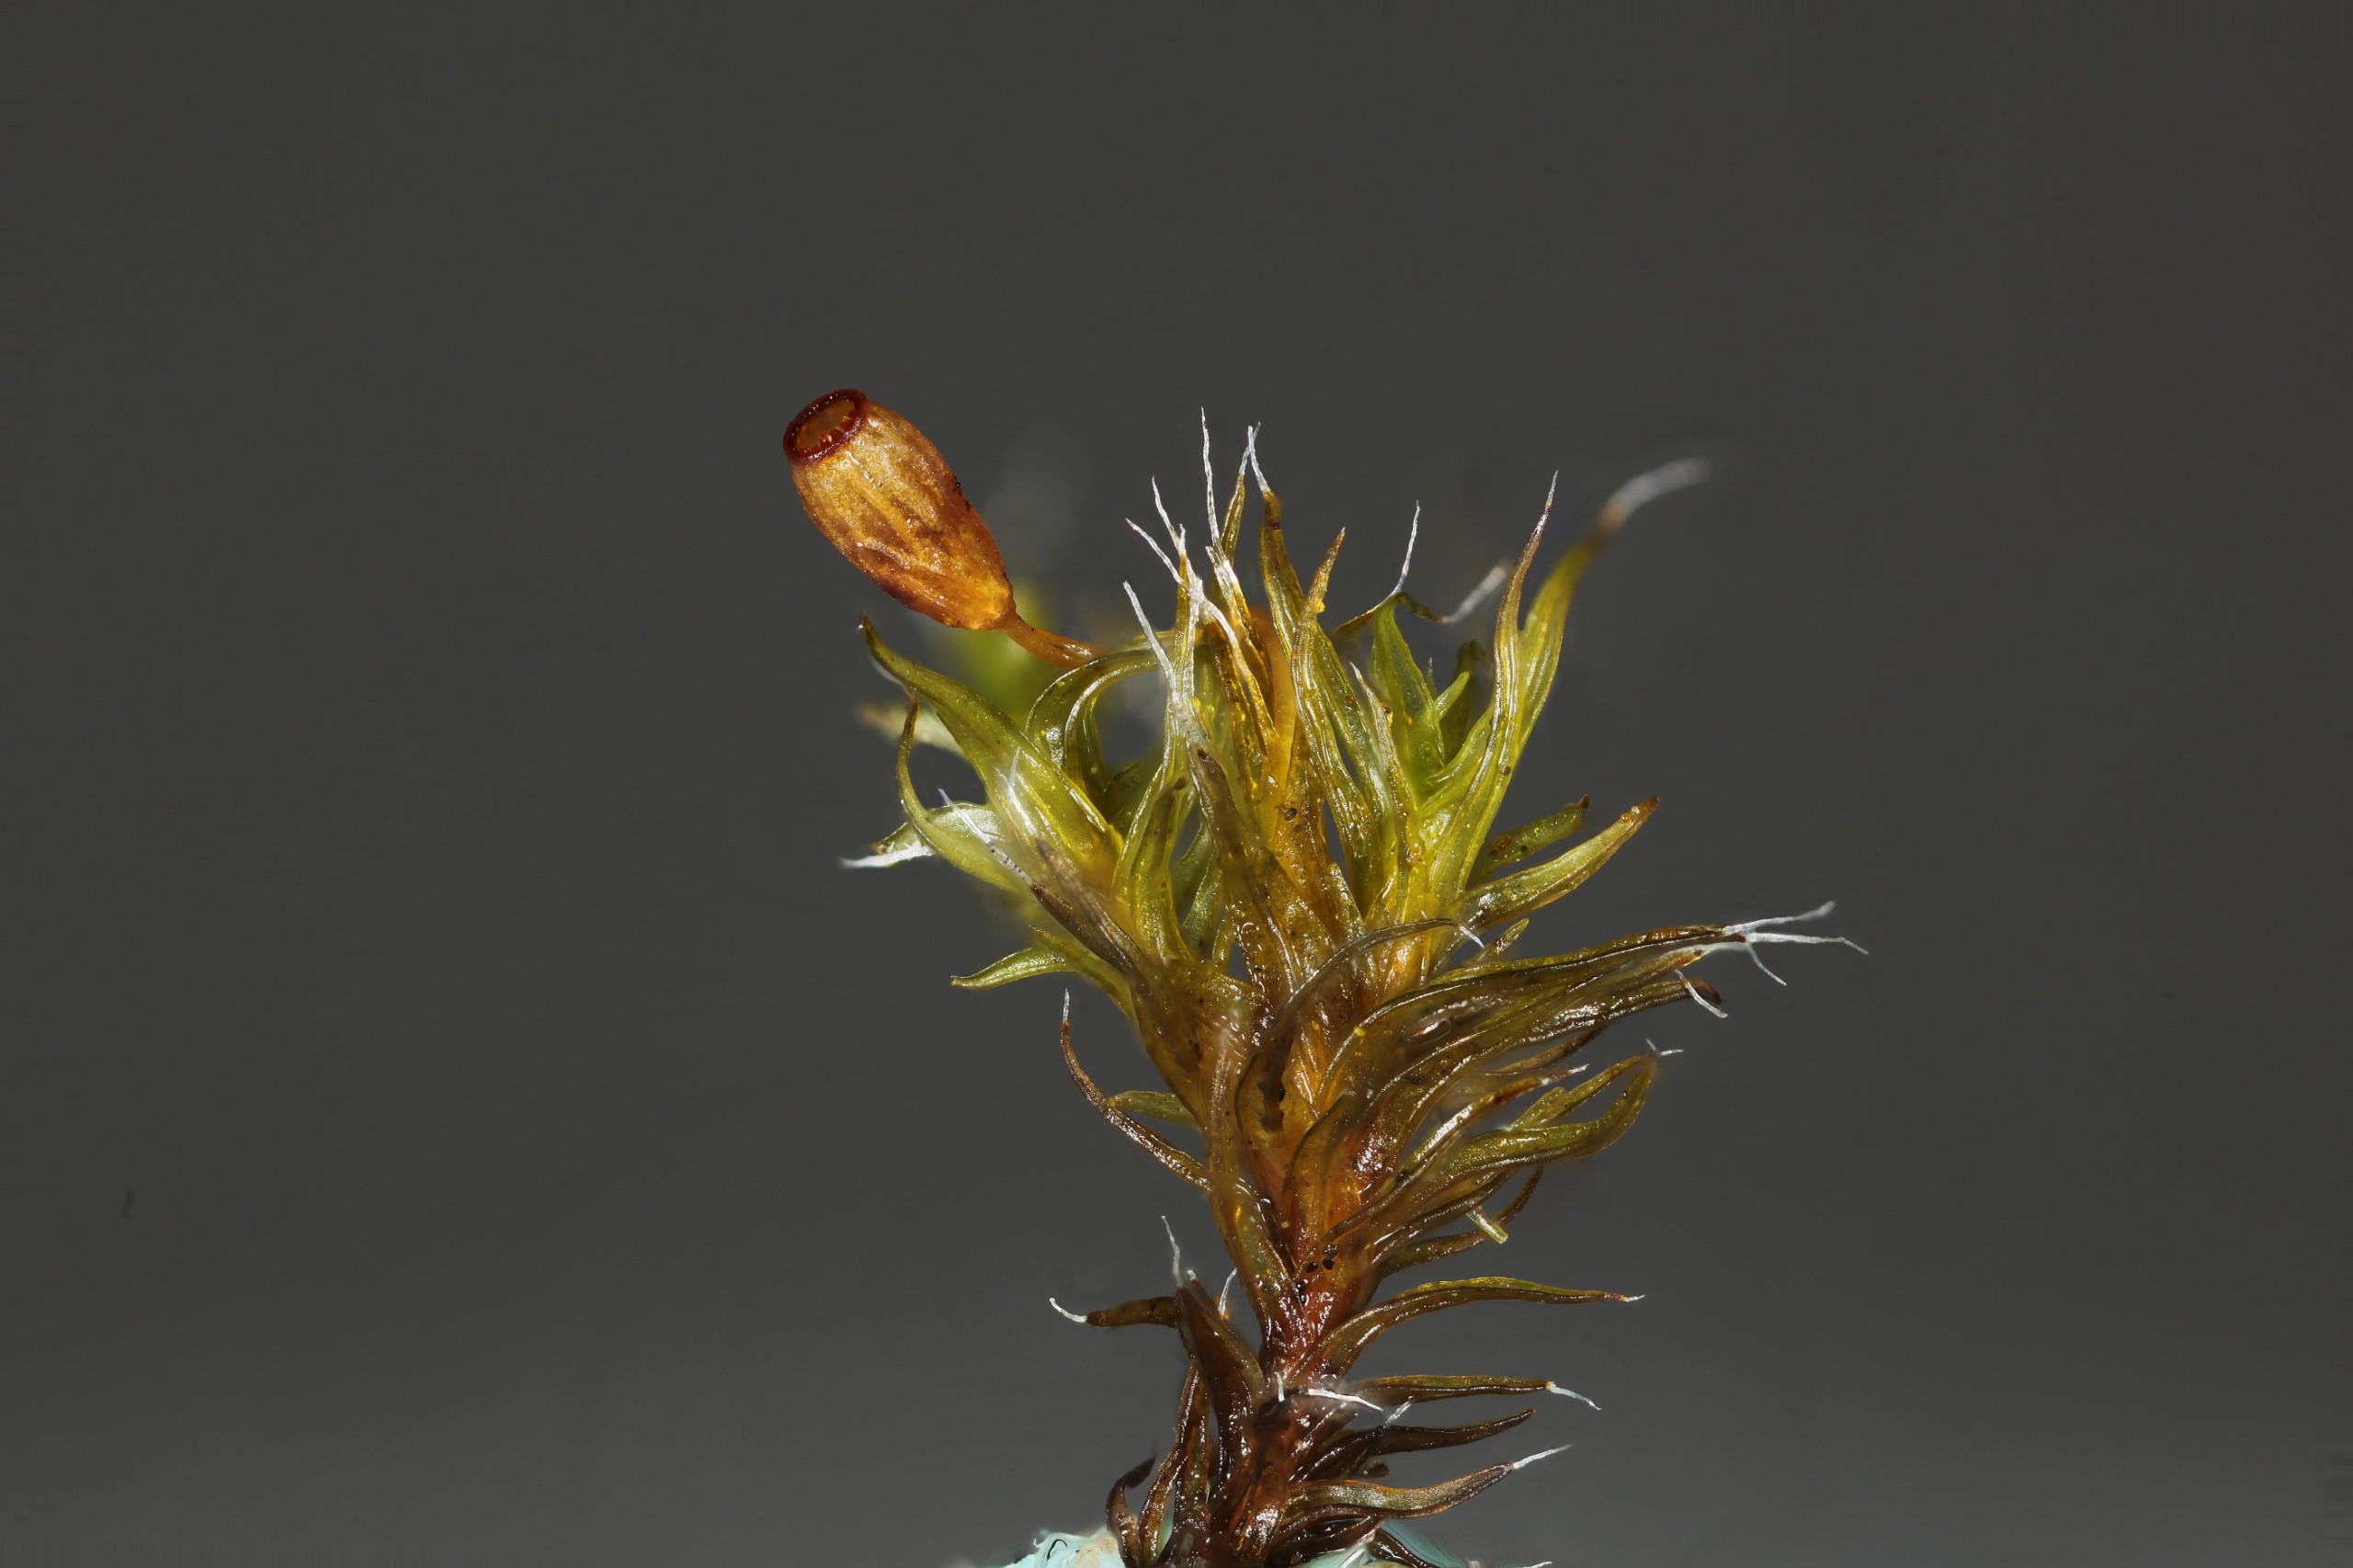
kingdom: Plantae
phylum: Bryophyta
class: Bryopsida
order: Grimmiales
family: Grimmiaceae
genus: Grimmia
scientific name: Grimmia trichophylla
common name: Glathåret gråmos
